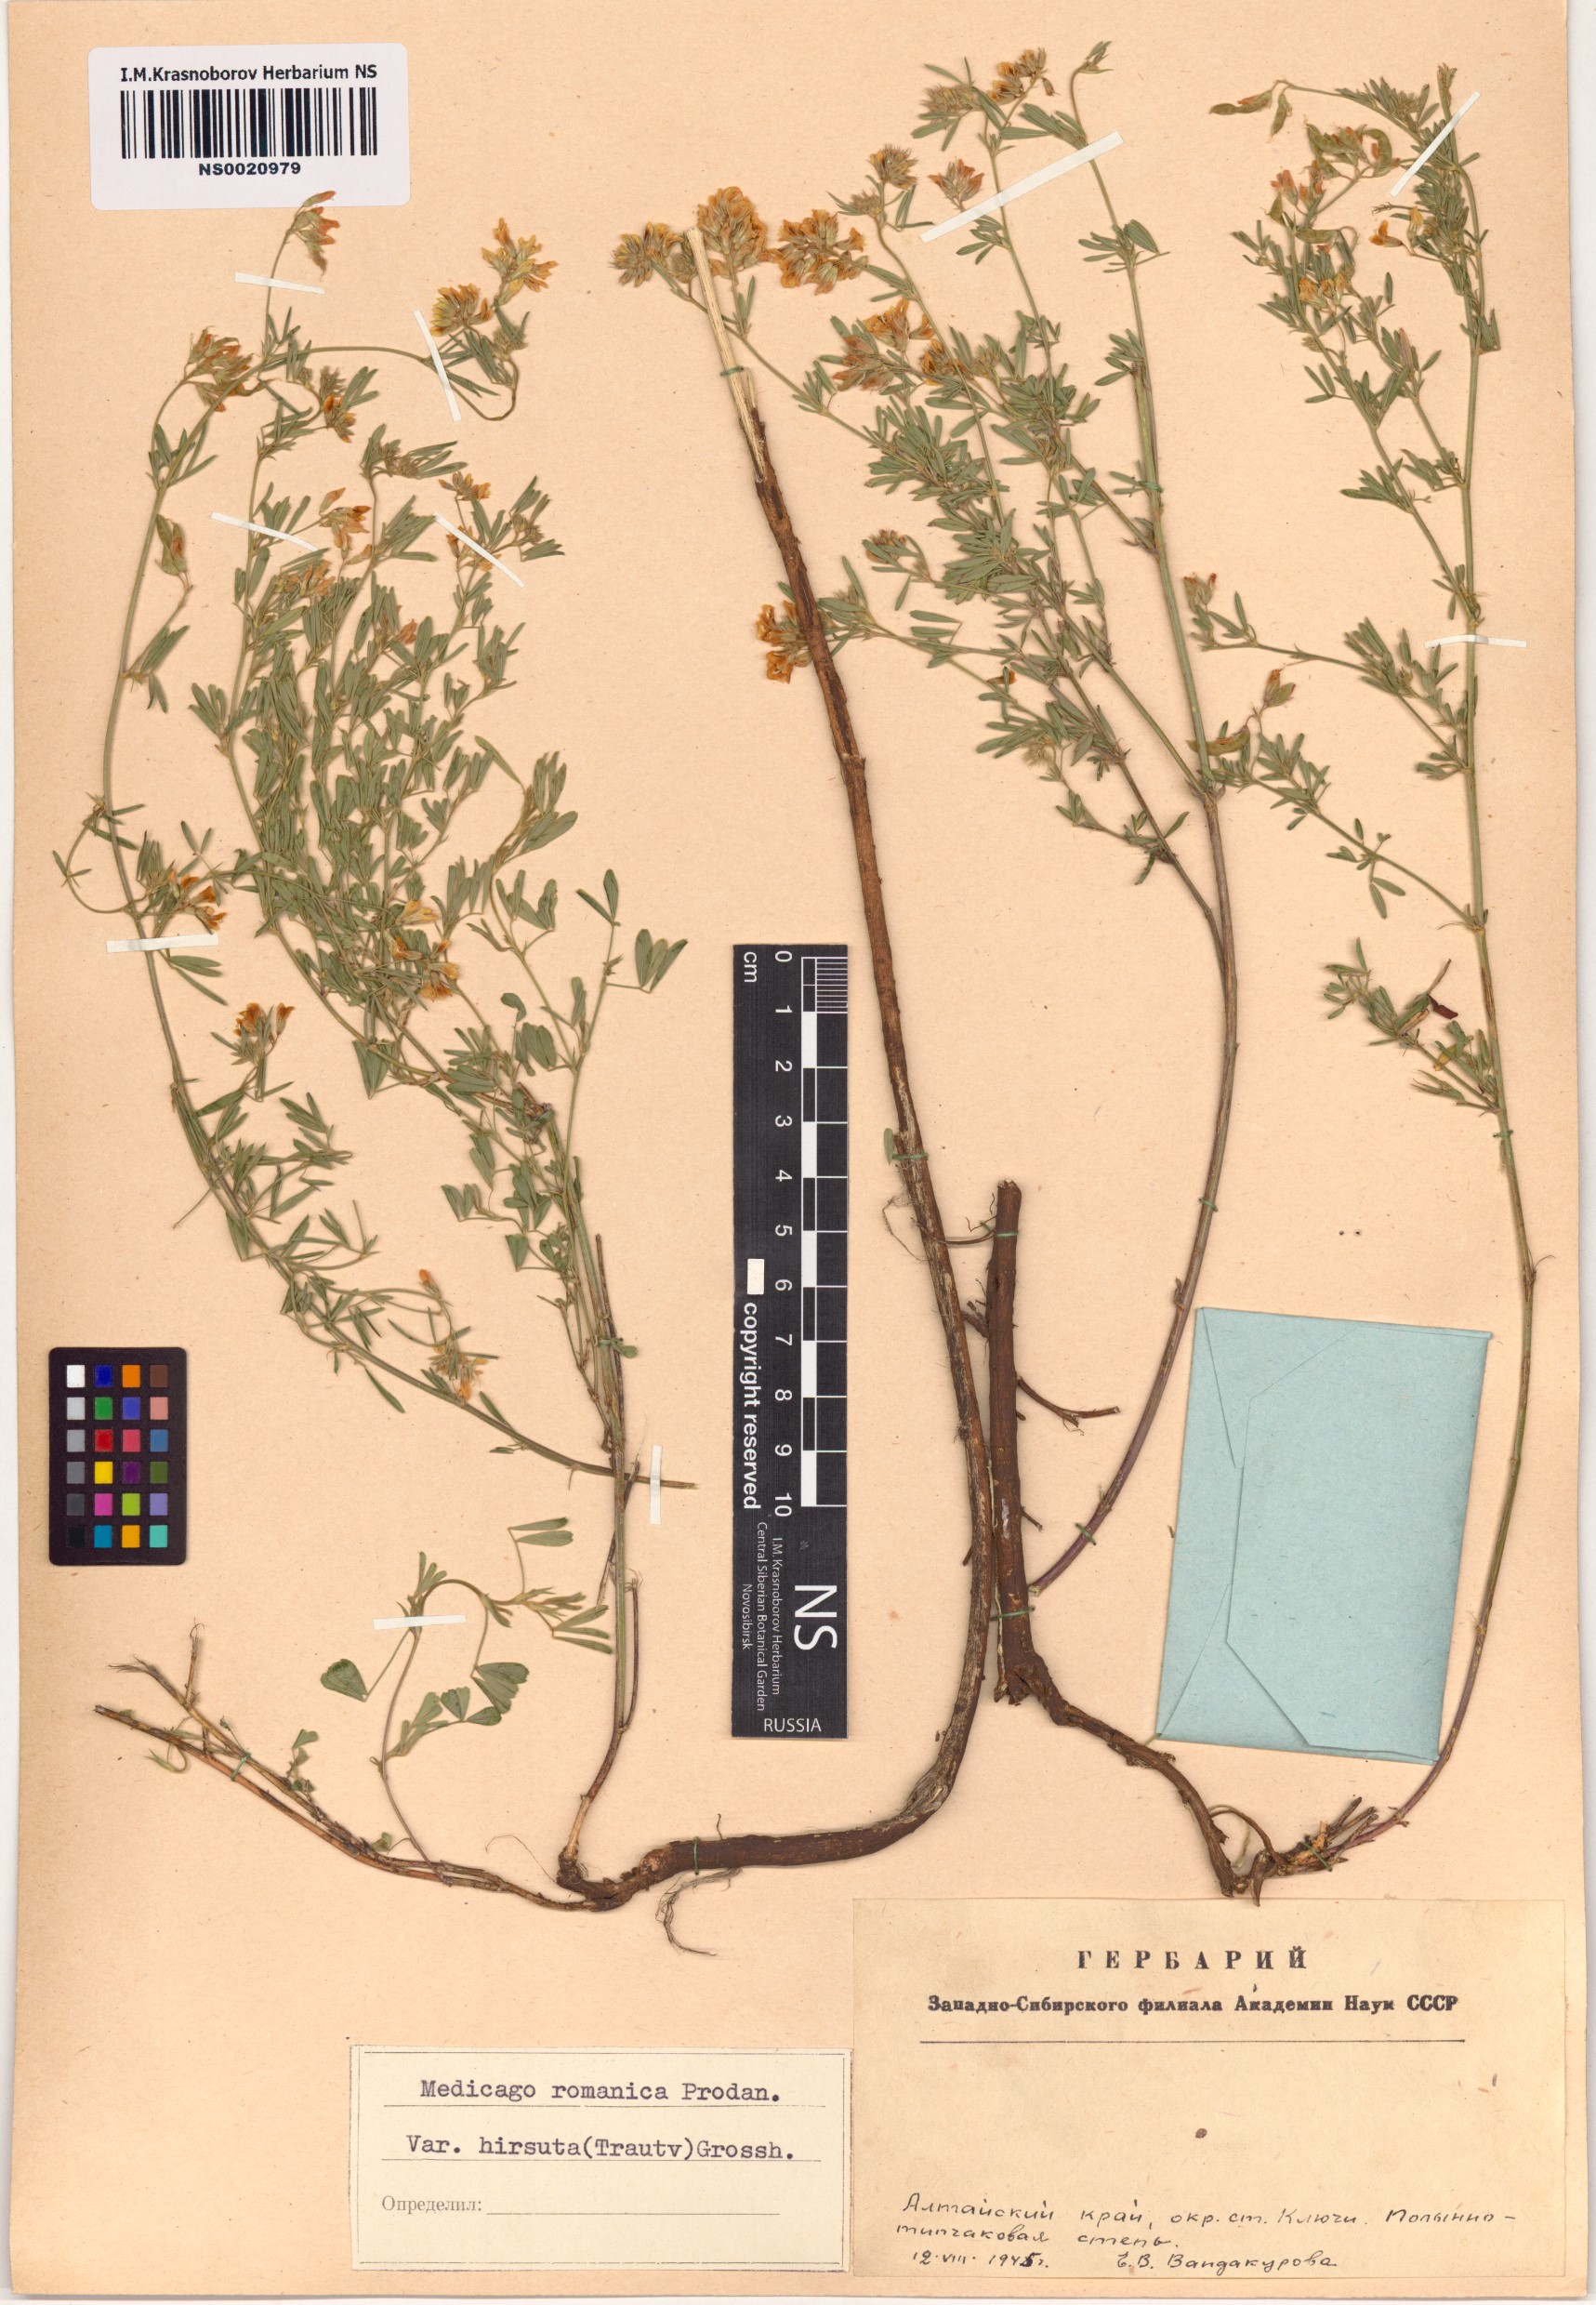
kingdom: Plantae
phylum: Tracheophyta
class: Magnoliopsida
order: Fabales
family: Fabaceae
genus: Medicago
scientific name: Medicago falcata
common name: Sickle medick
